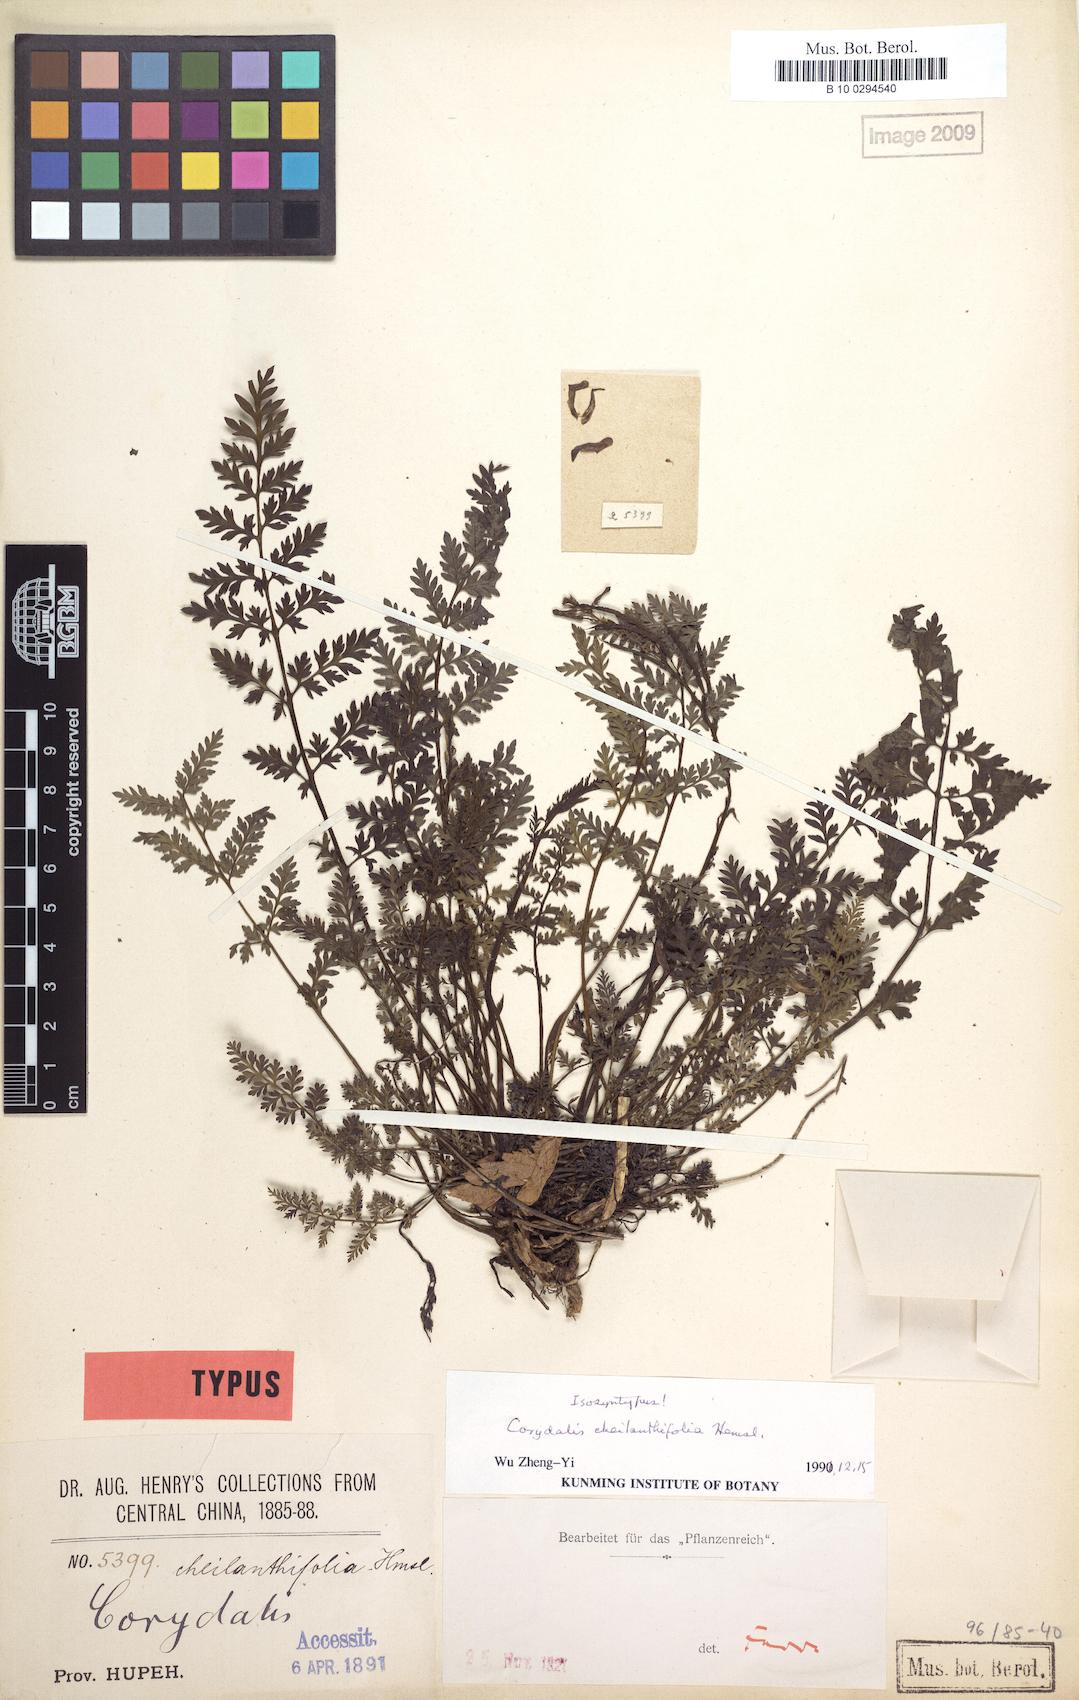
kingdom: Plantae
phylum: Tracheophyta
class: Magnoliopsida
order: Ranunculales
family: Papaveraceae
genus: Corydalis
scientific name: Corydalis cheilanthifolia
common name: Fern-leaved corydalis
